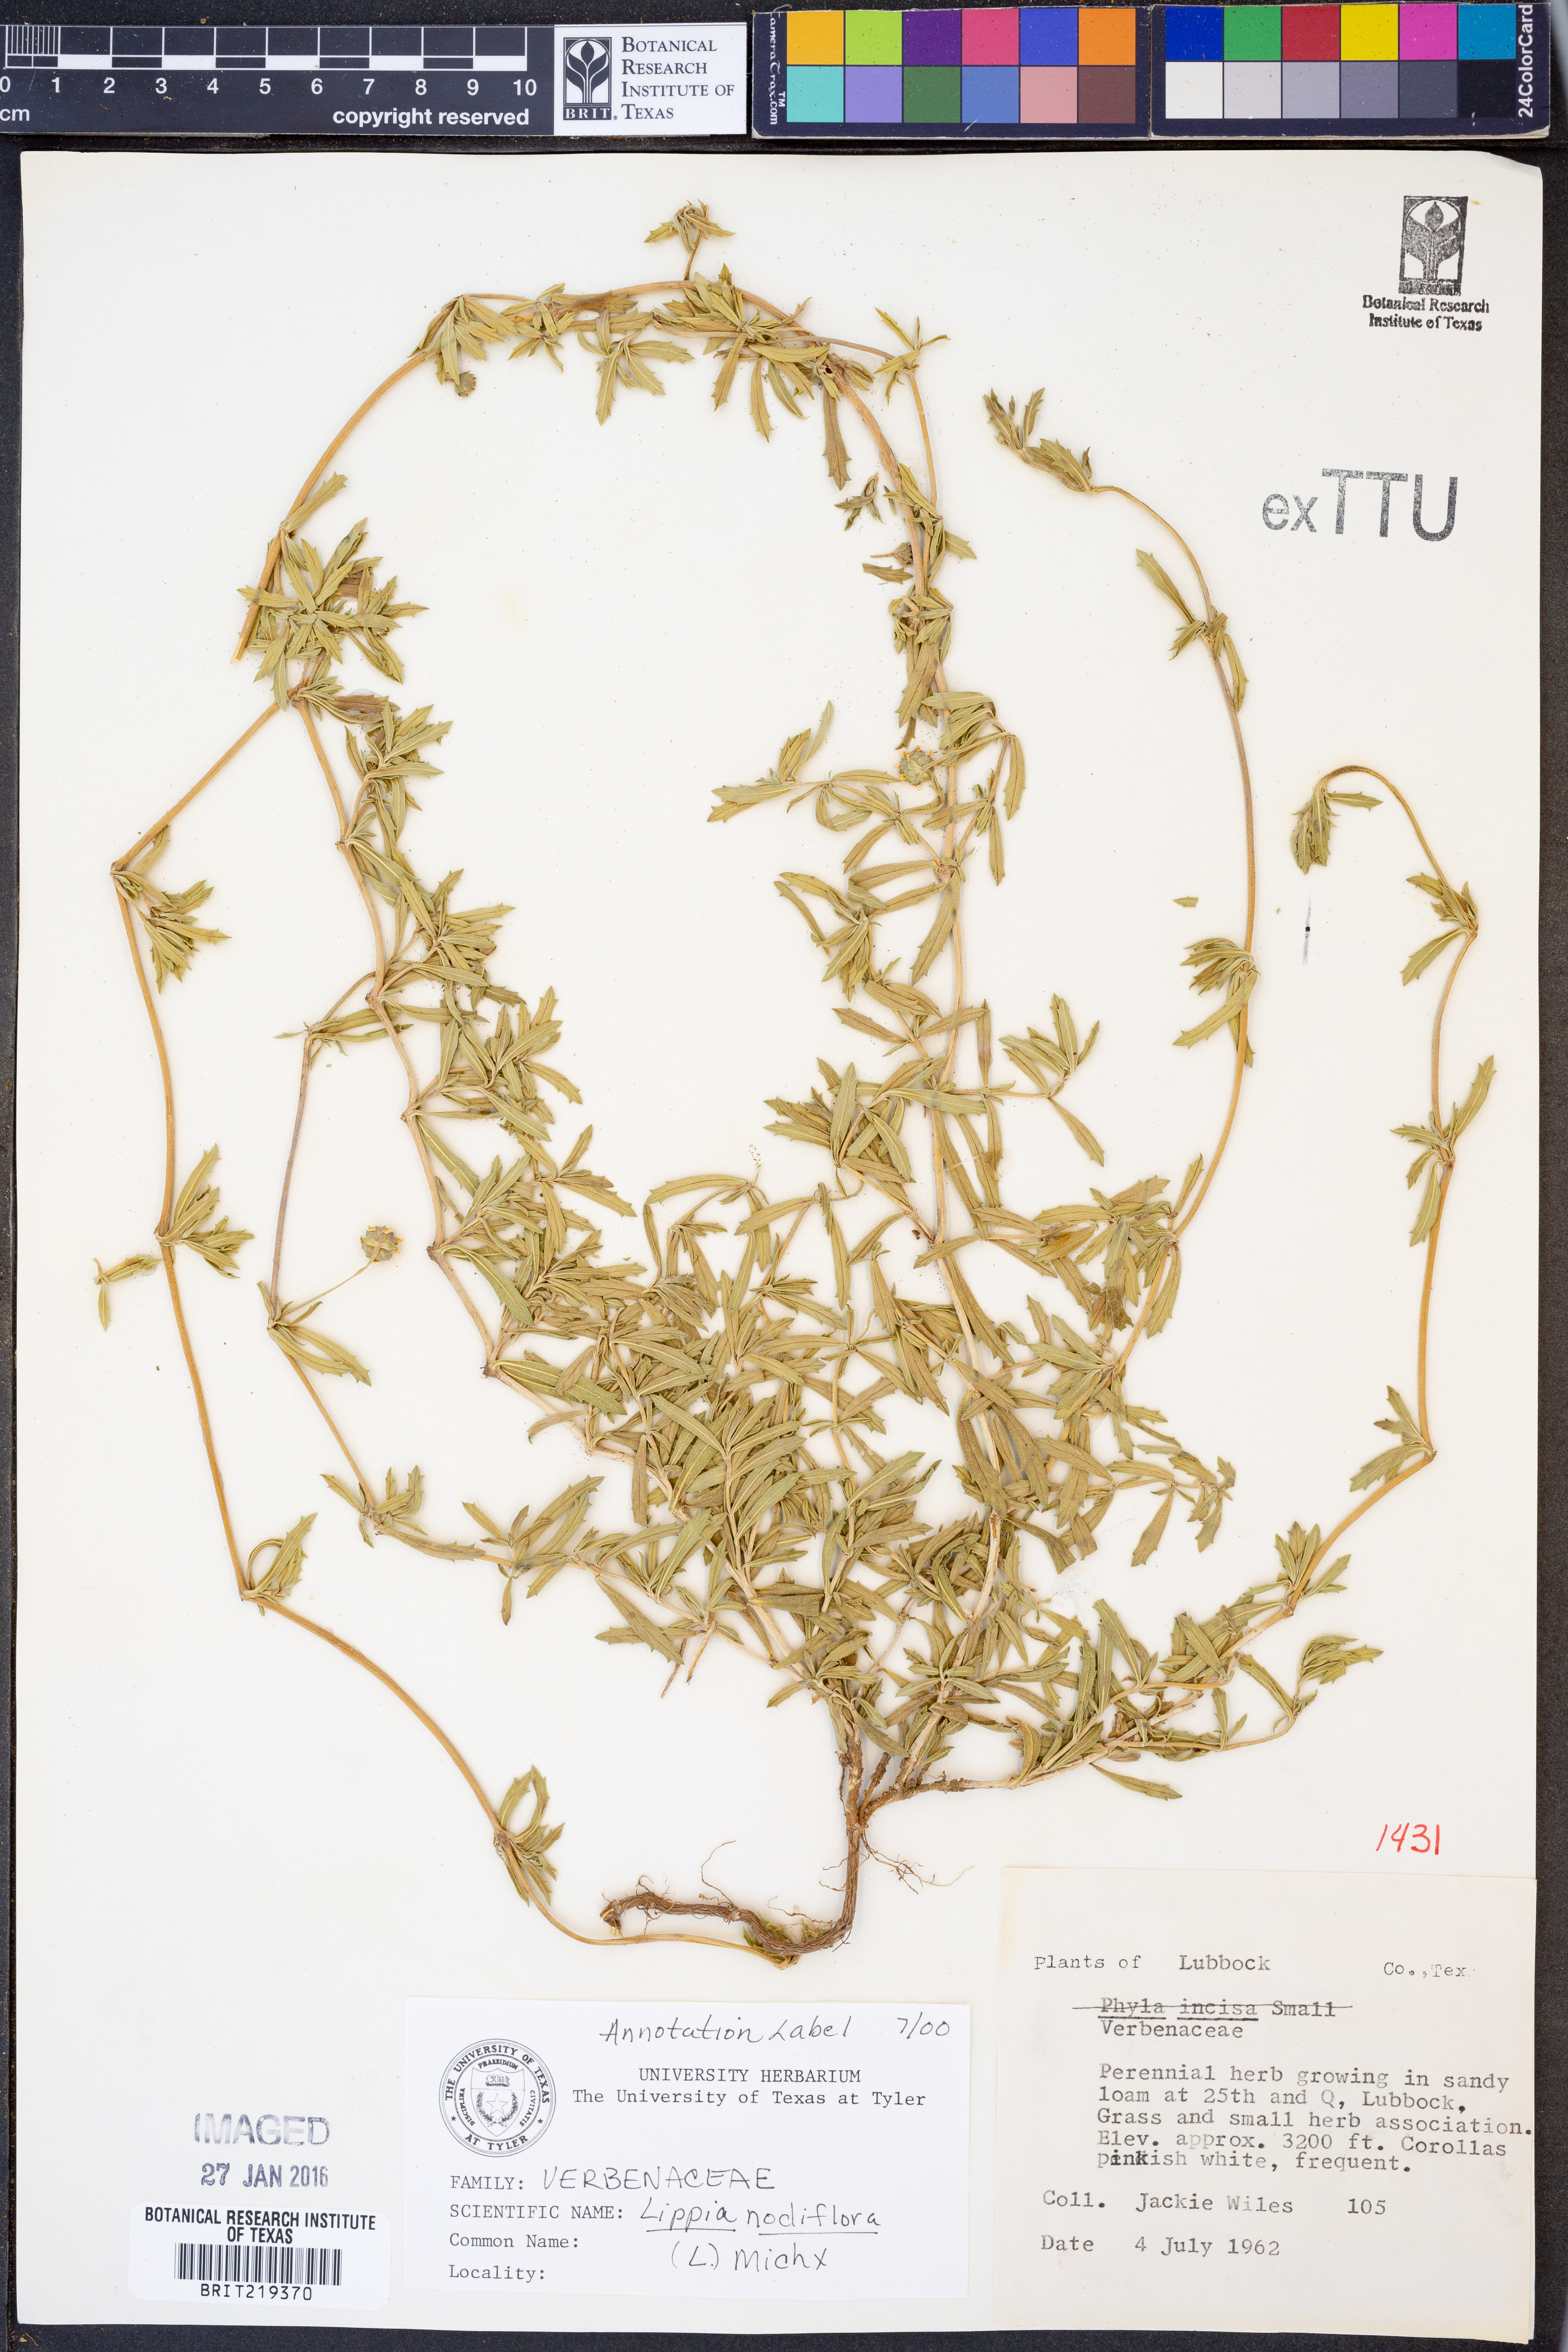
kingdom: Plantae
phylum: Tracheophyta
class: Magnoliopsida
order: Lamiales
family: Verbenaceae
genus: Phyla
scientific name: Phyla nodiflora
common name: Frogfruit
